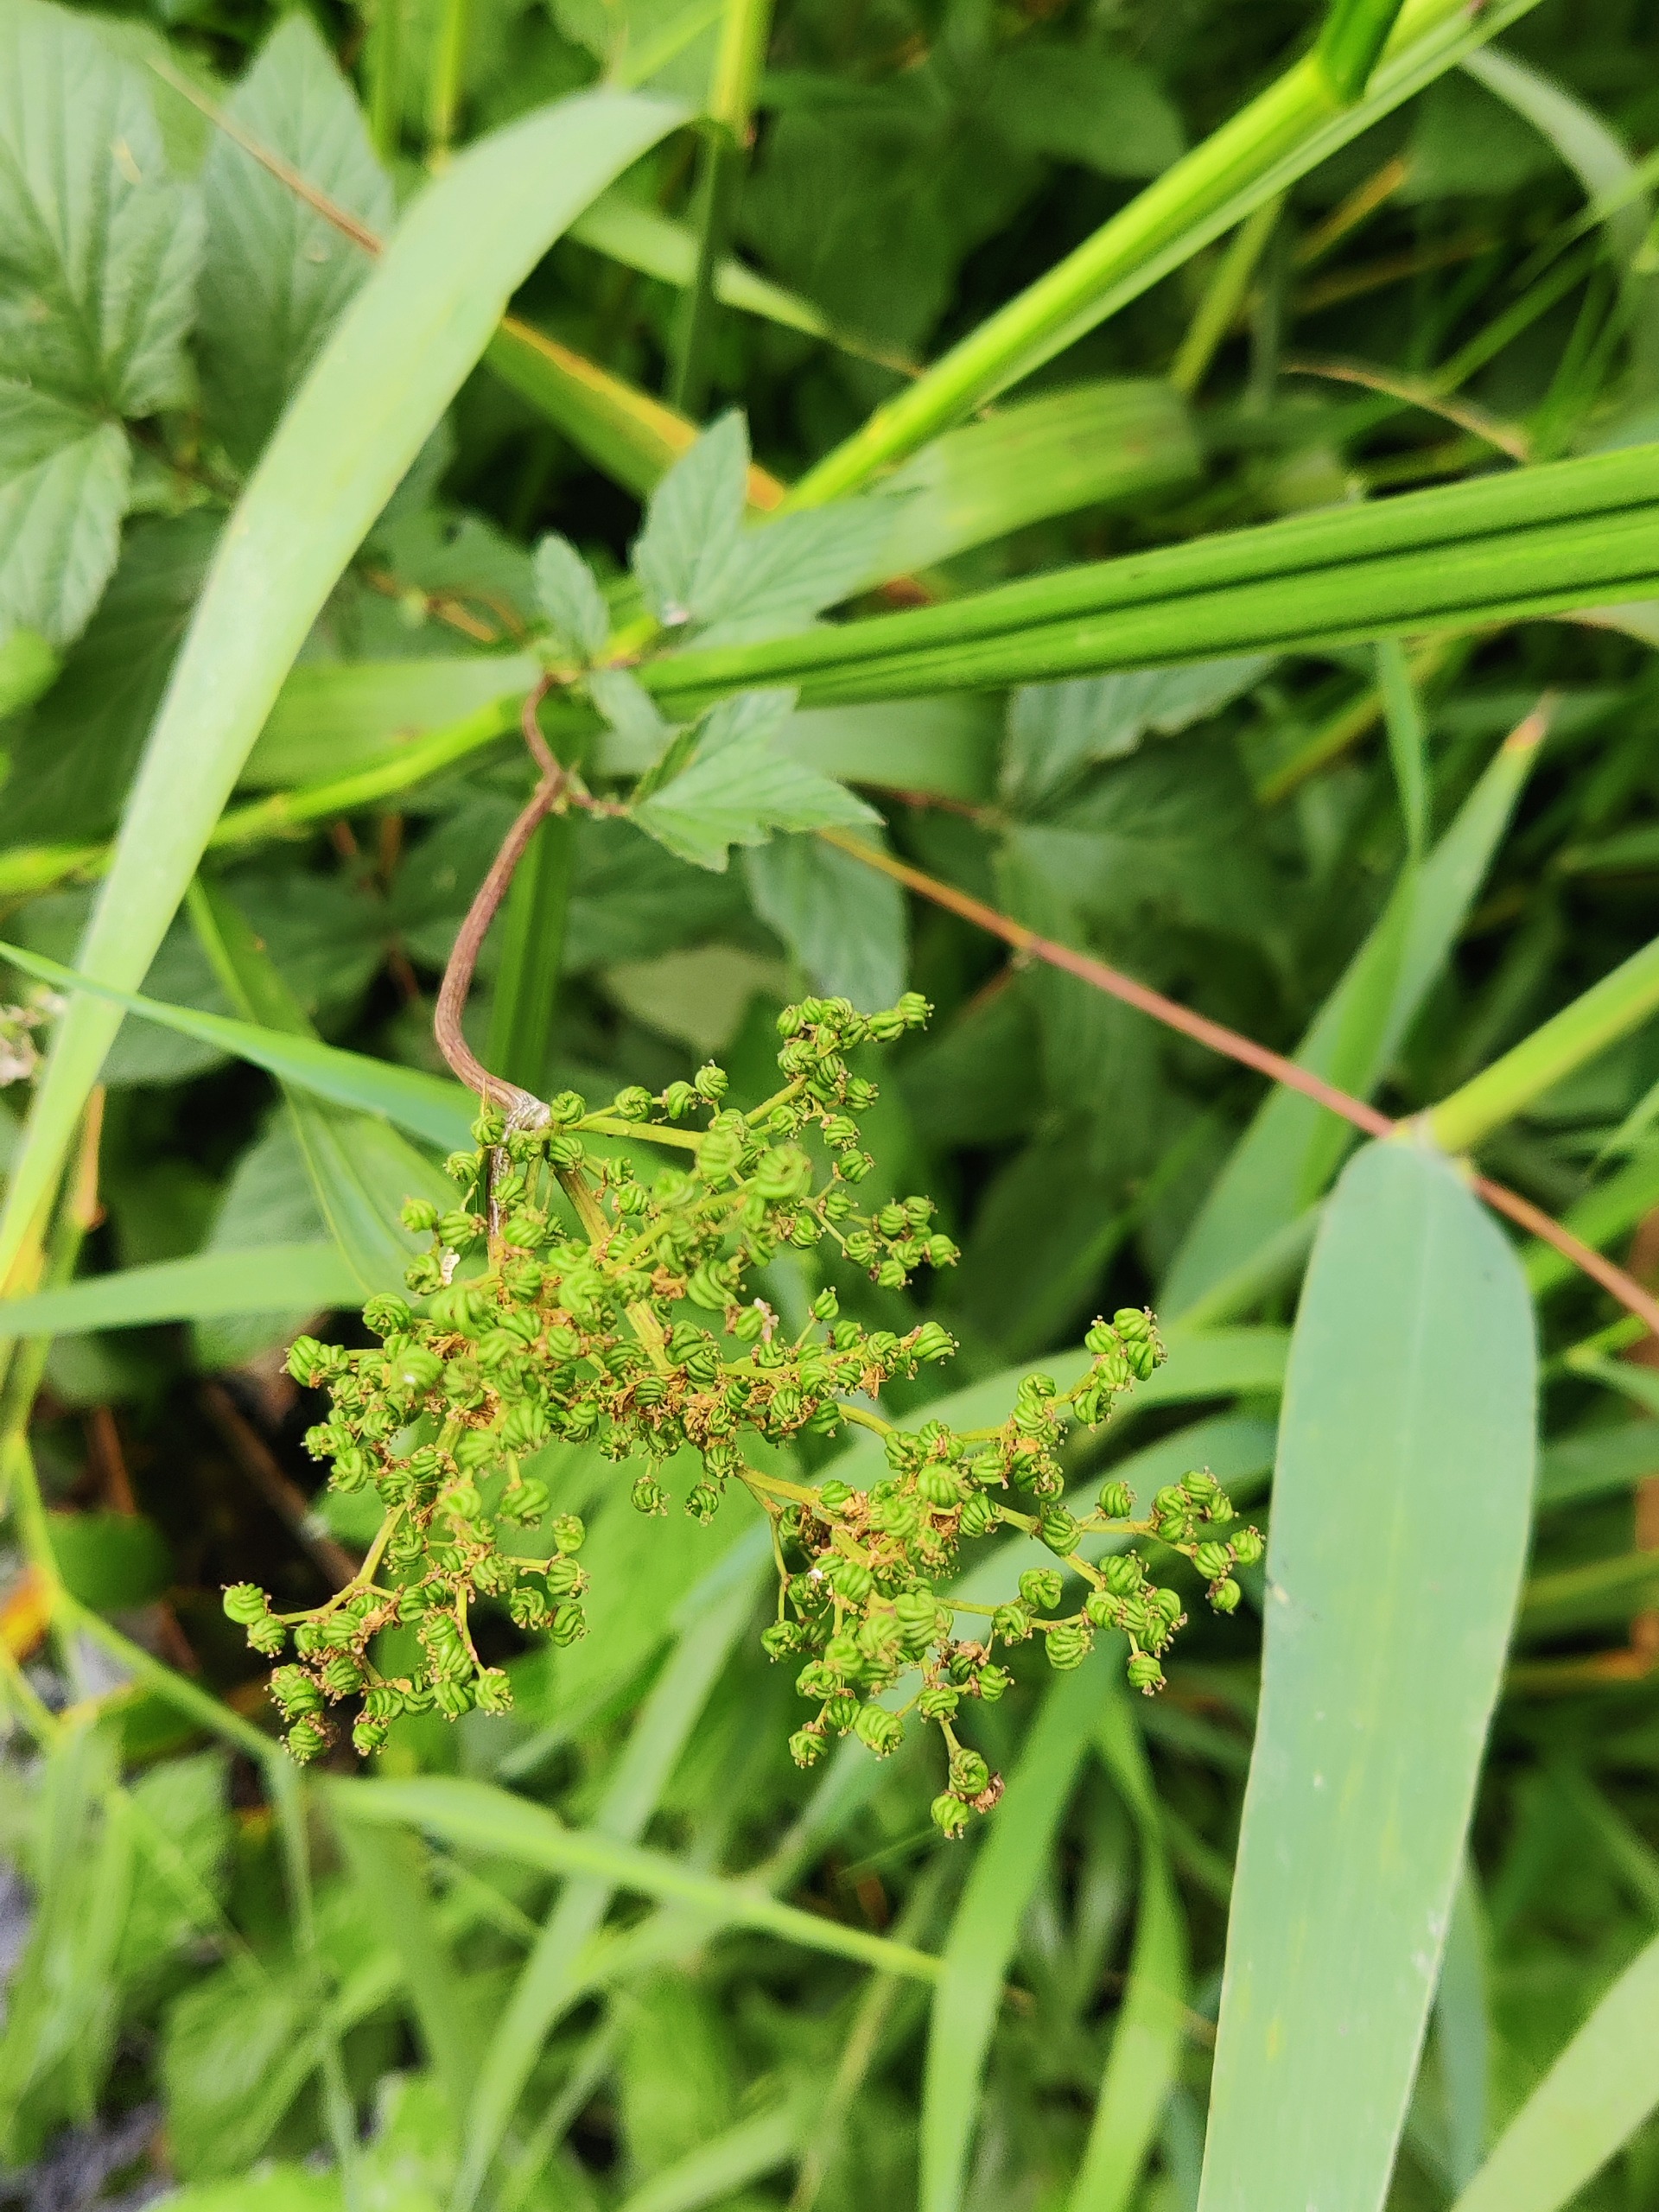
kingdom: Plantae
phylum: Tracheophyta
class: Magnoliopsida
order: Rosales
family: Rosaceae
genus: Filipendula
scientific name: Filipendula ulmaria
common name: Almindelig mjødurt
